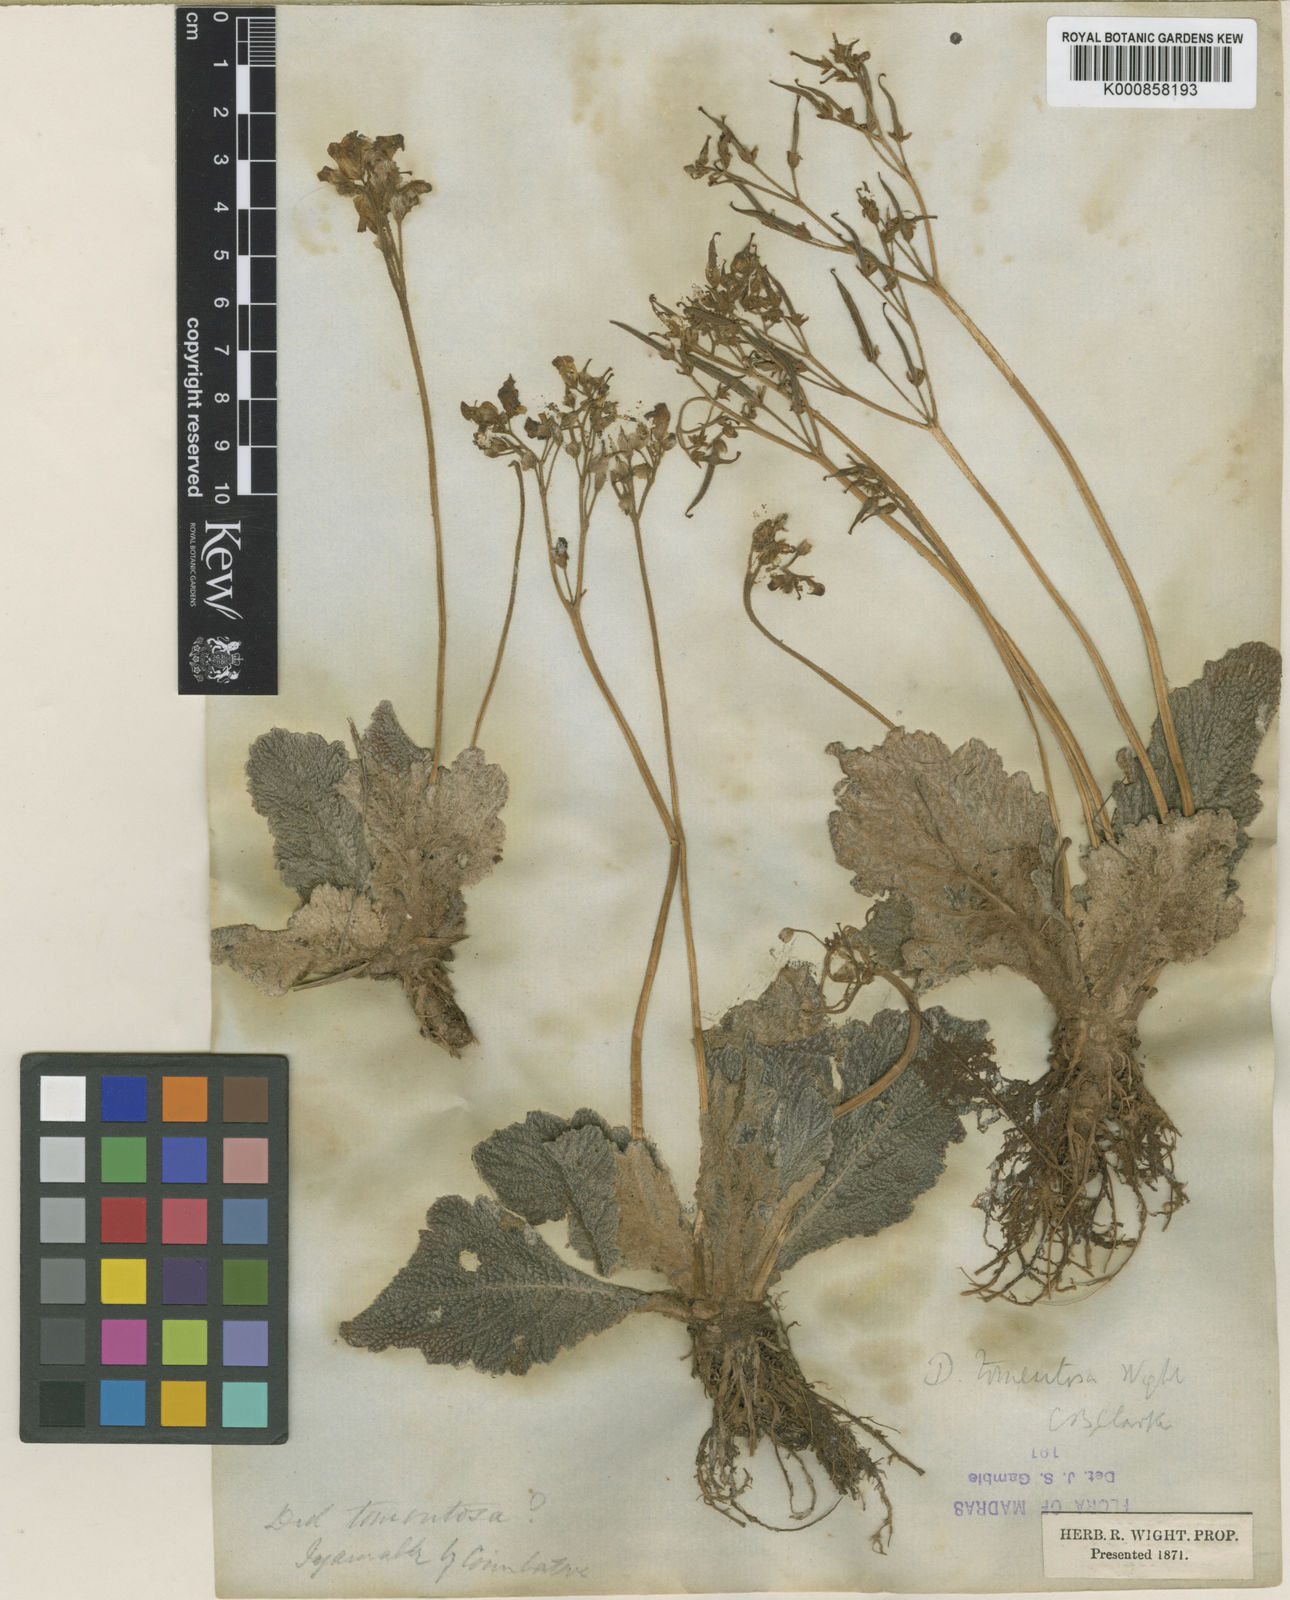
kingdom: Plantae
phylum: Tracheophyta
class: Magnoliopsida
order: Lamiales
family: Gesneriaceae
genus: Henckelia
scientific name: Henckelia incana
